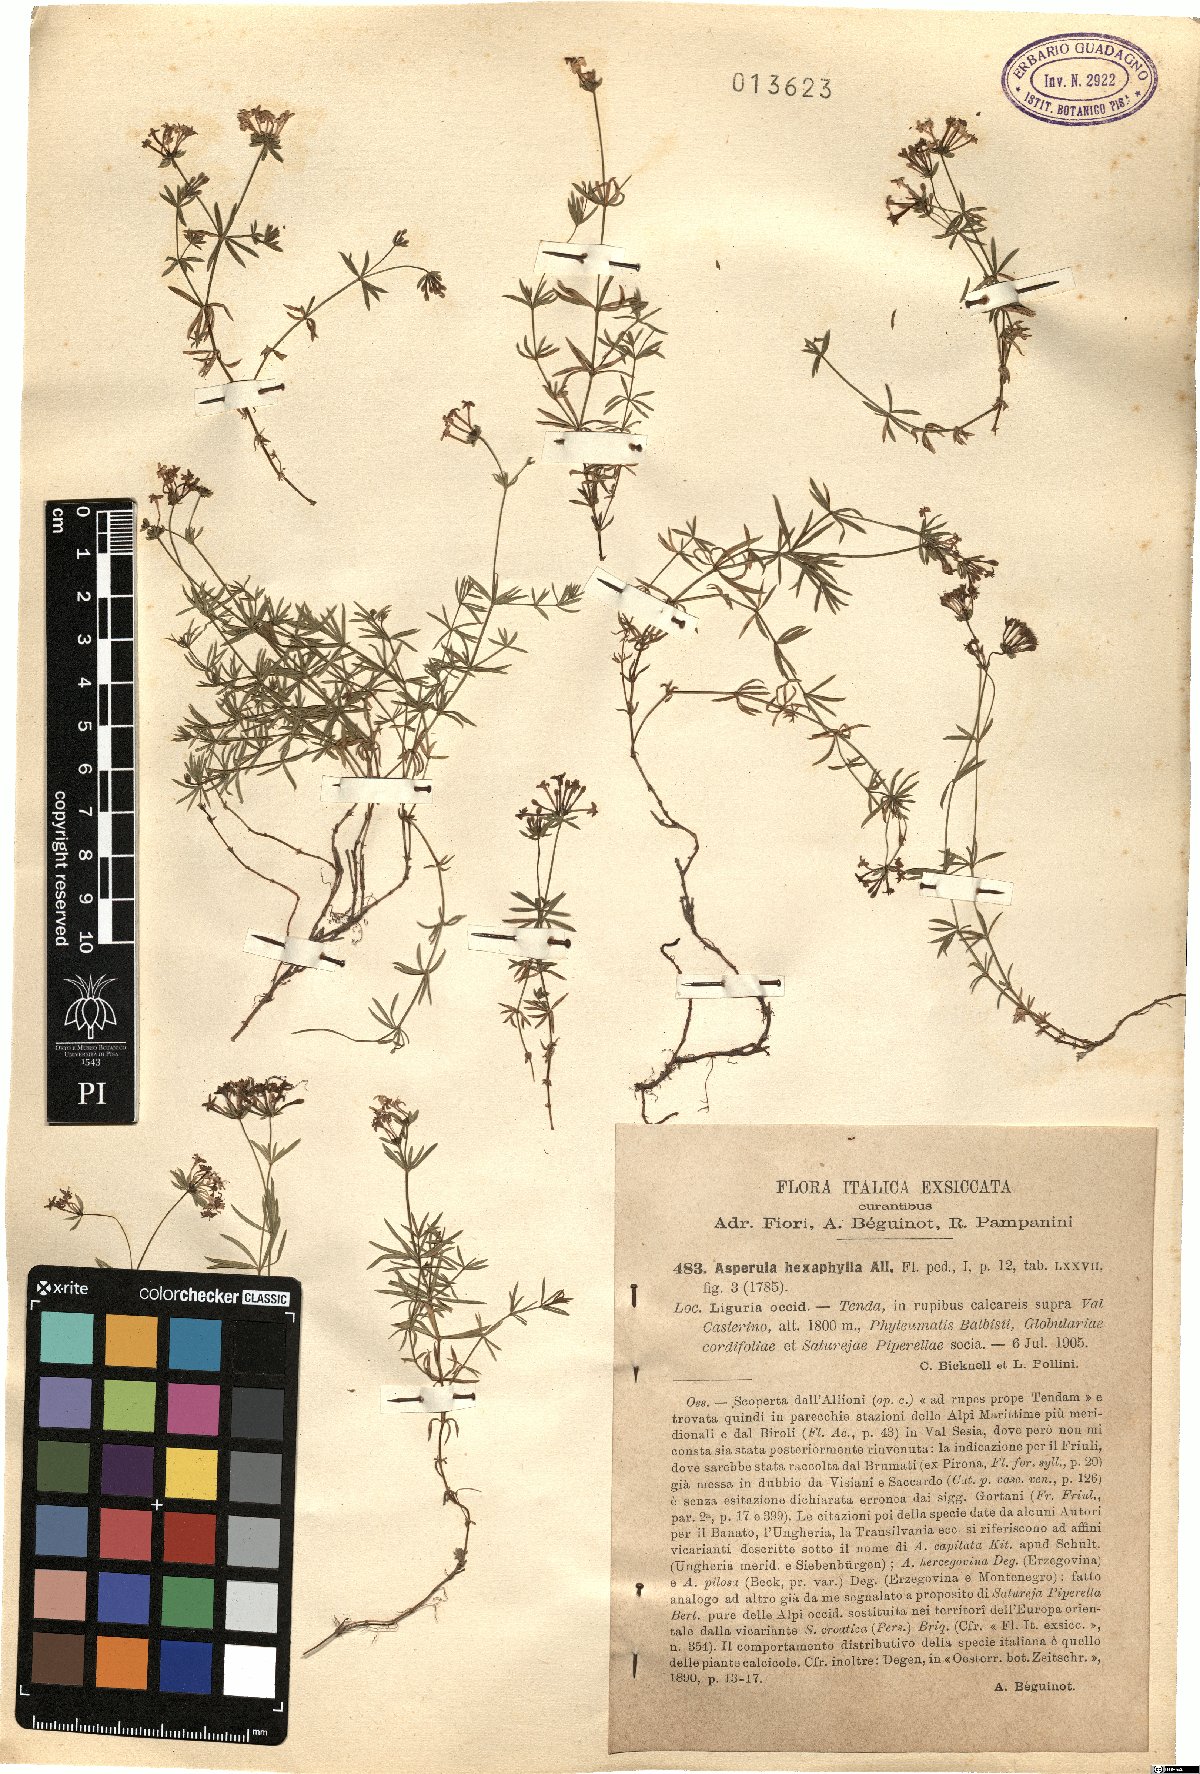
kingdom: Plantae
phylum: Tracheophyta
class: Magnoliopsida
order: Gentianales
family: Rubiaceae
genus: Hexaphylla
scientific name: Hexaphylla allionii
